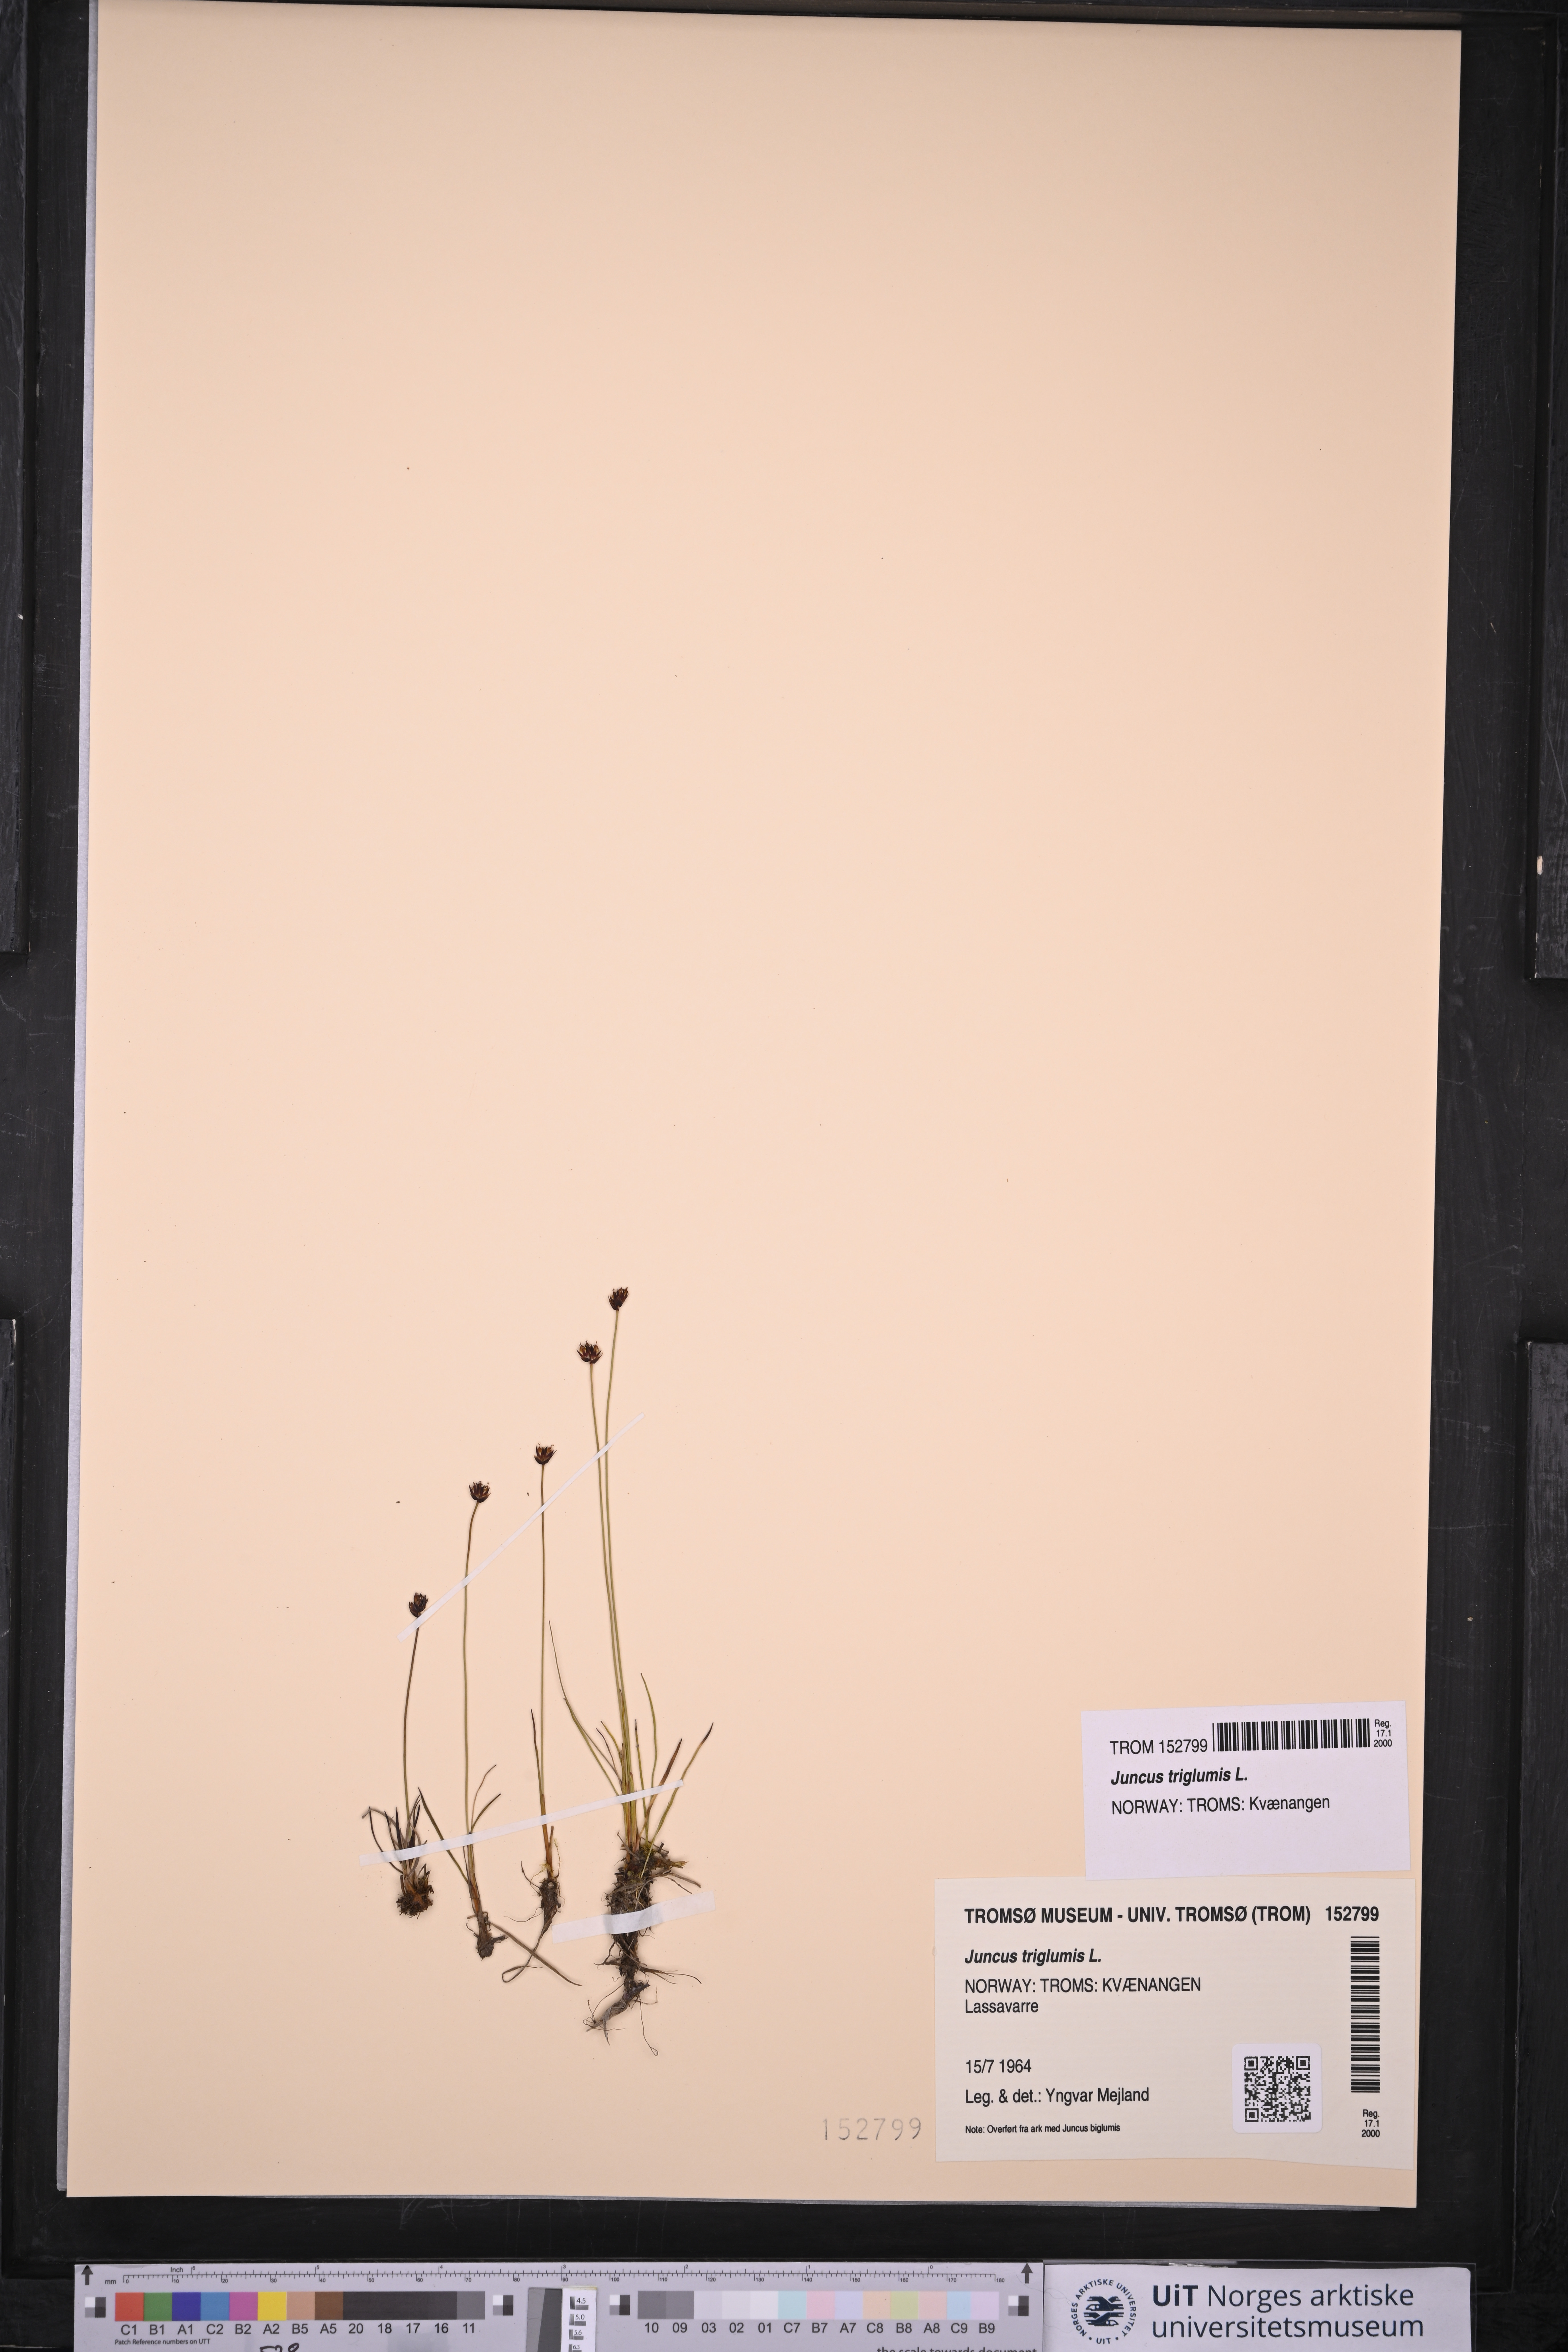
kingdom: Plantae
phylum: Tracheophyta
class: Liliopsida
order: Poales
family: Juncaceae
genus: Juncus
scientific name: Juncus triglumis
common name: Three-flowered rush
